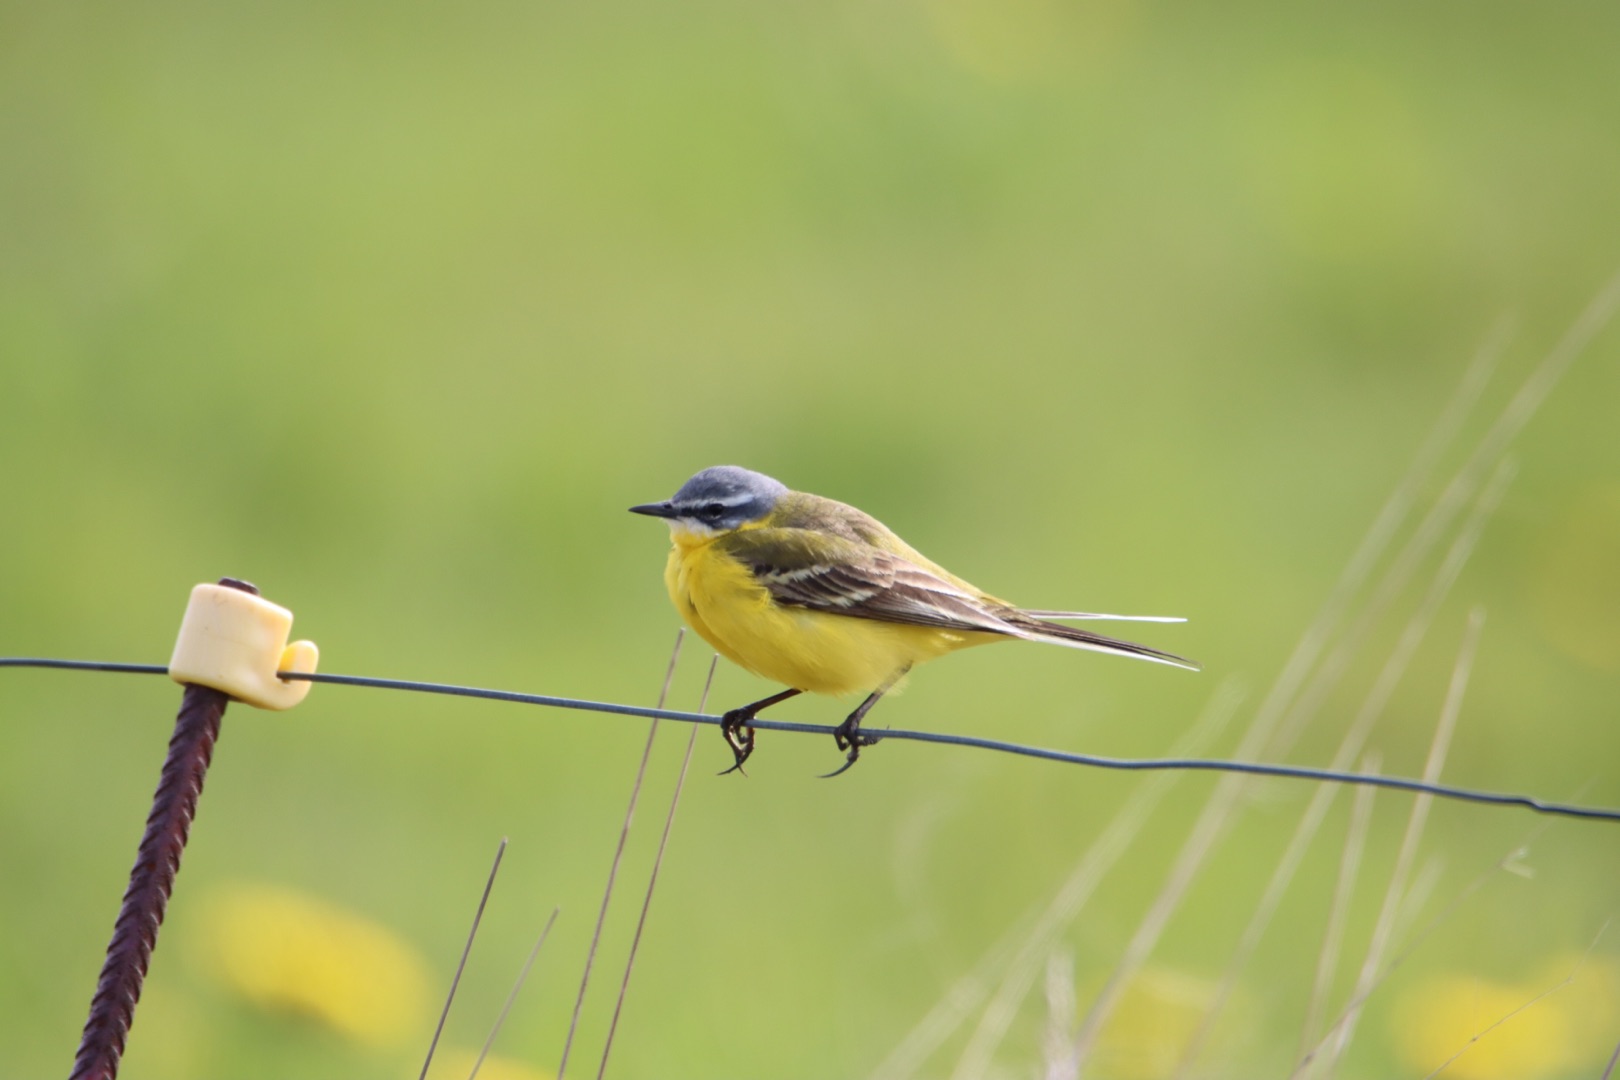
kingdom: Animalia
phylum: Chordata
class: Aves
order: Passeriformes
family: Motacillidae
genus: Motacilla
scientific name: Motacilla flava
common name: Gul vipstjert
